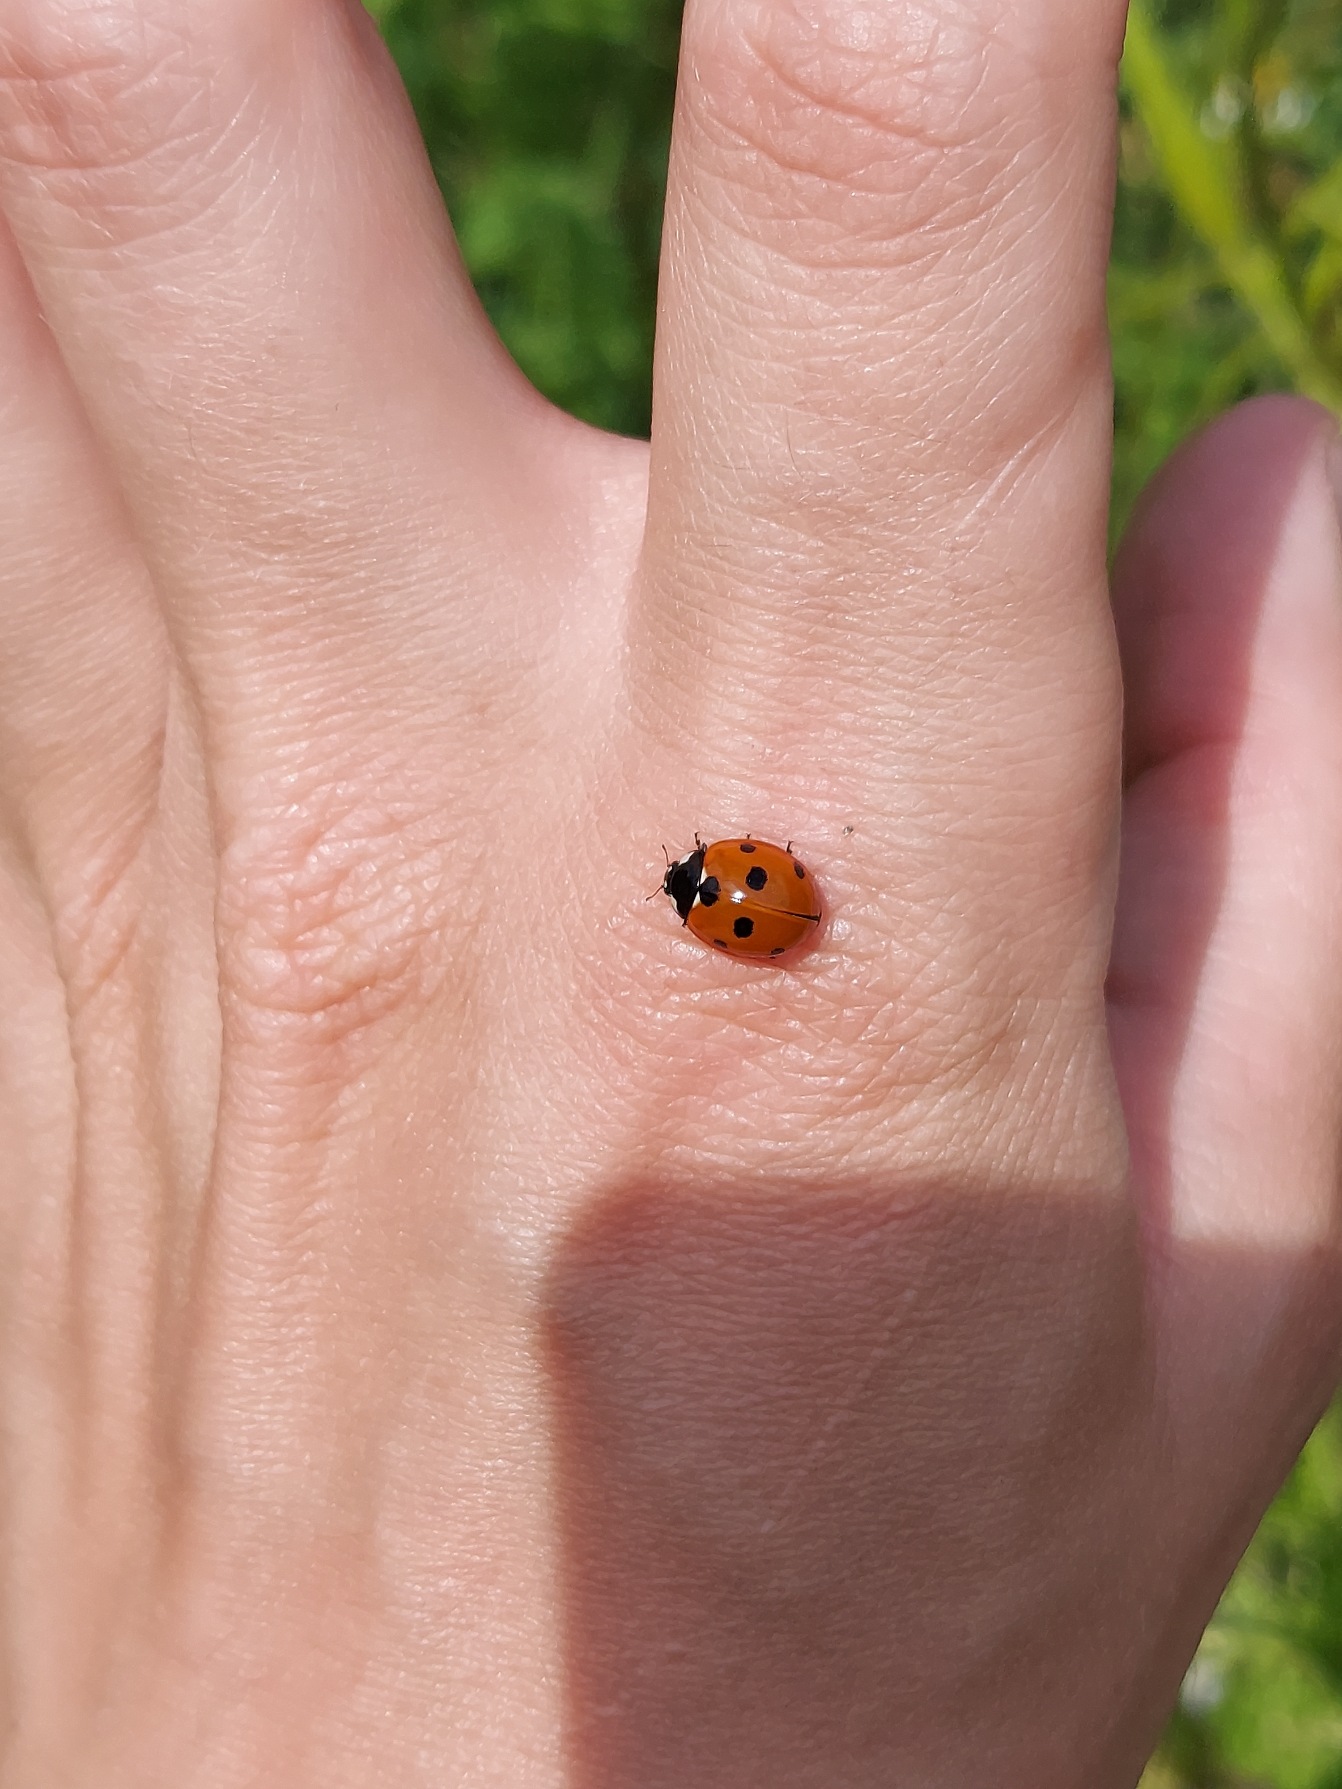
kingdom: Animalia
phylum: Arthropoda
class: Insecta
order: Coleoptera
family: Coccinellidae
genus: Coccinella
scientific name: Coccinella septempunctata
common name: Syvplettet mariehøne
